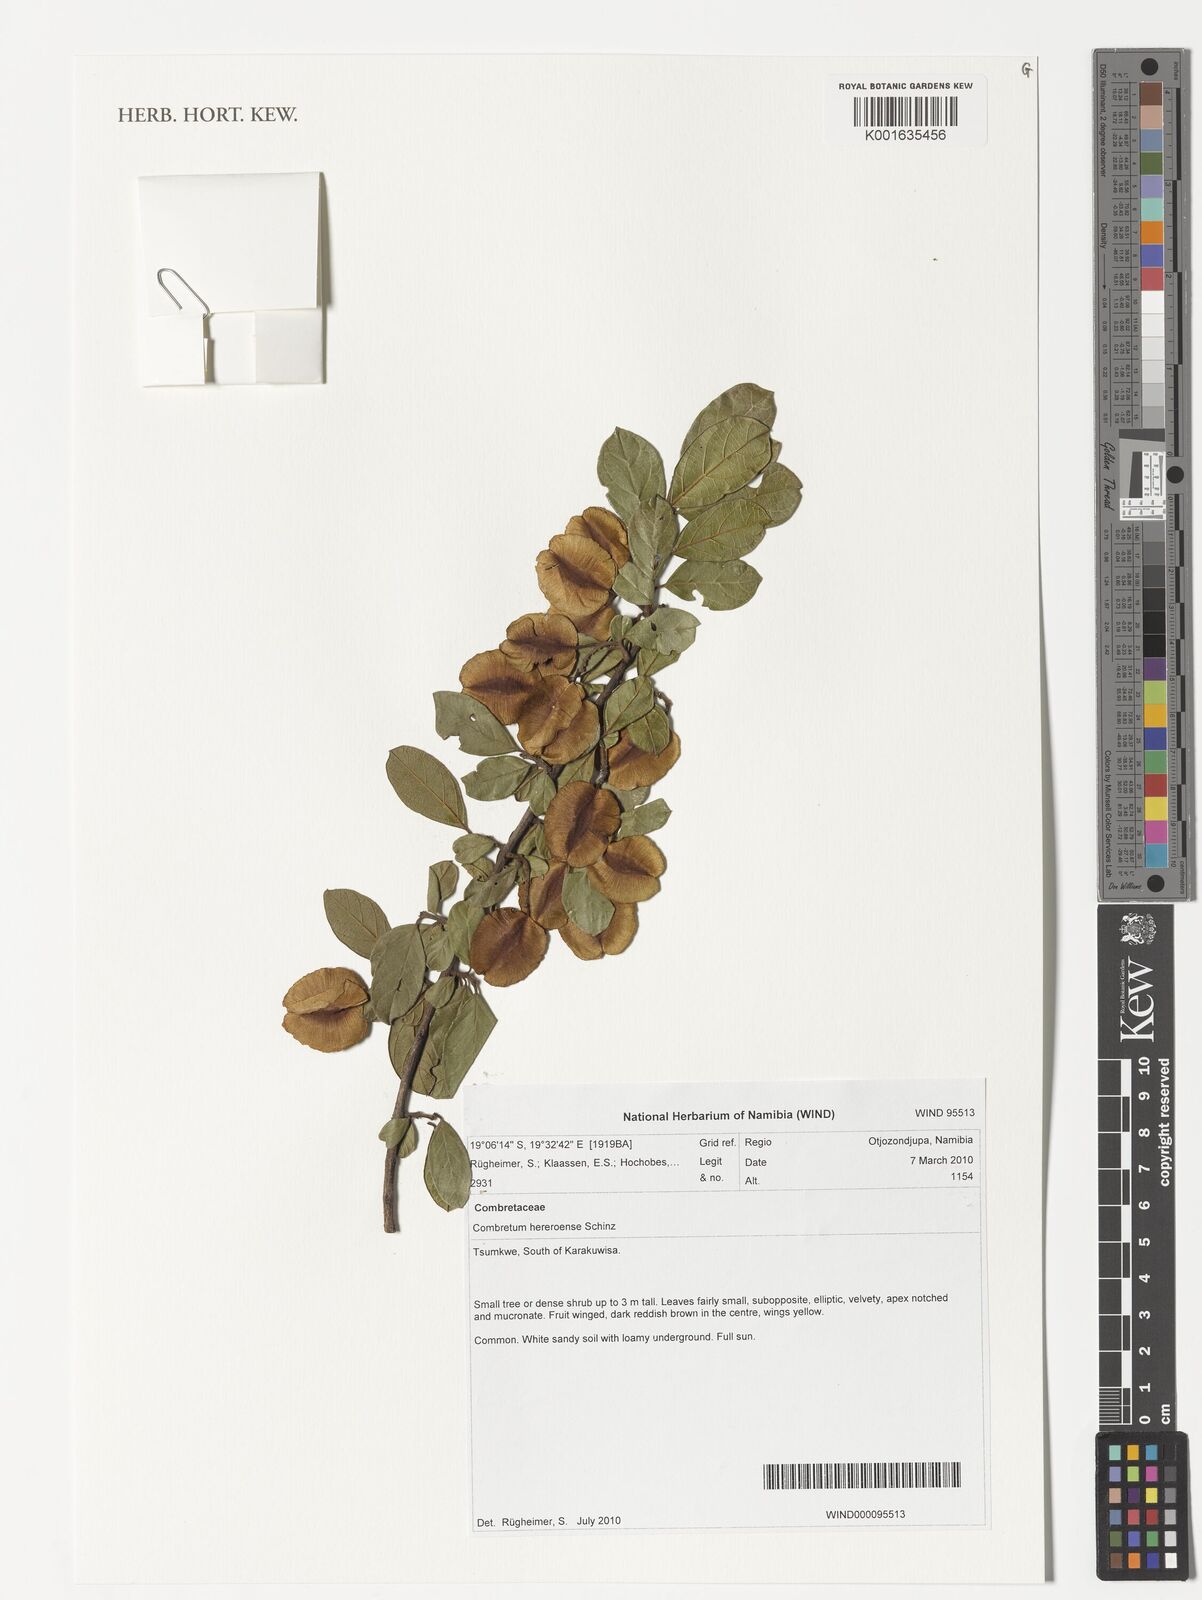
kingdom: Plantae
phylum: Tracheophyta
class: Magnoliopsida
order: Myrtales
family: Combretaceae
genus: Combretum
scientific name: Combretum hereroense
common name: Russet bushwillow
